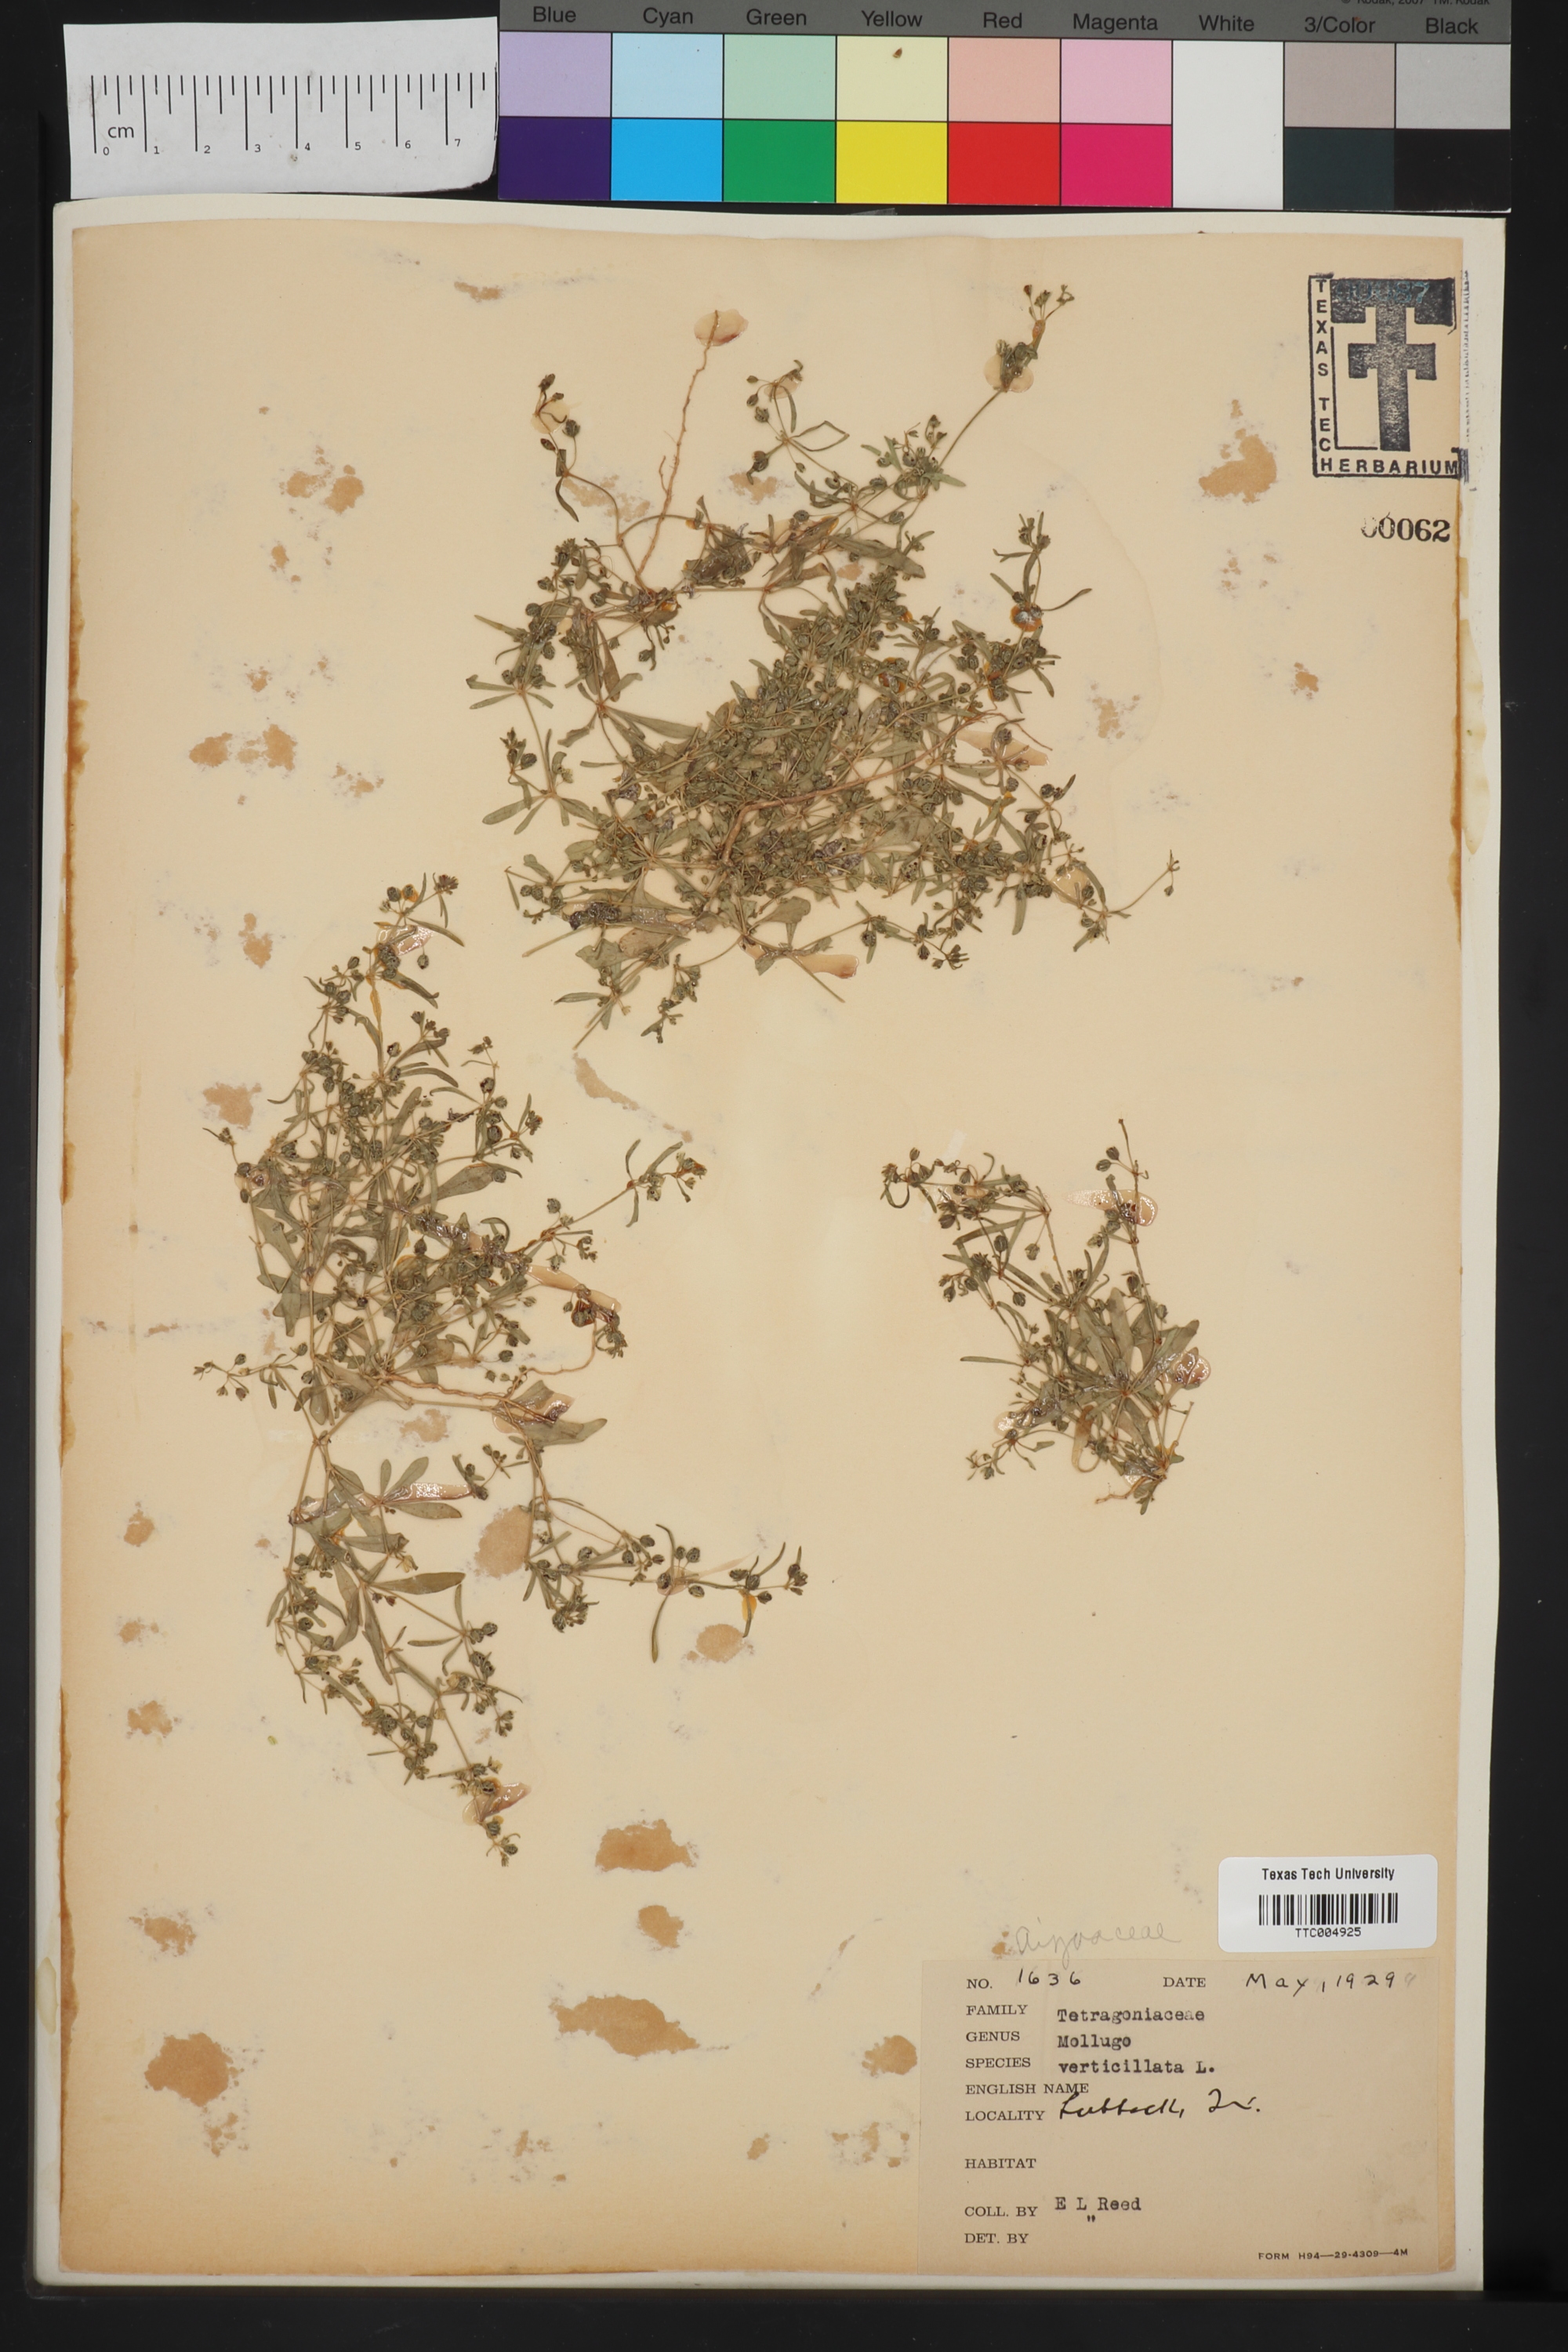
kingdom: Plantae
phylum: Tracheophyta
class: Magnoliopsida
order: Caryophyllales
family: Molluginaceae
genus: Mollugo
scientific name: Mollugo verticillata
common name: Green carpetweed
